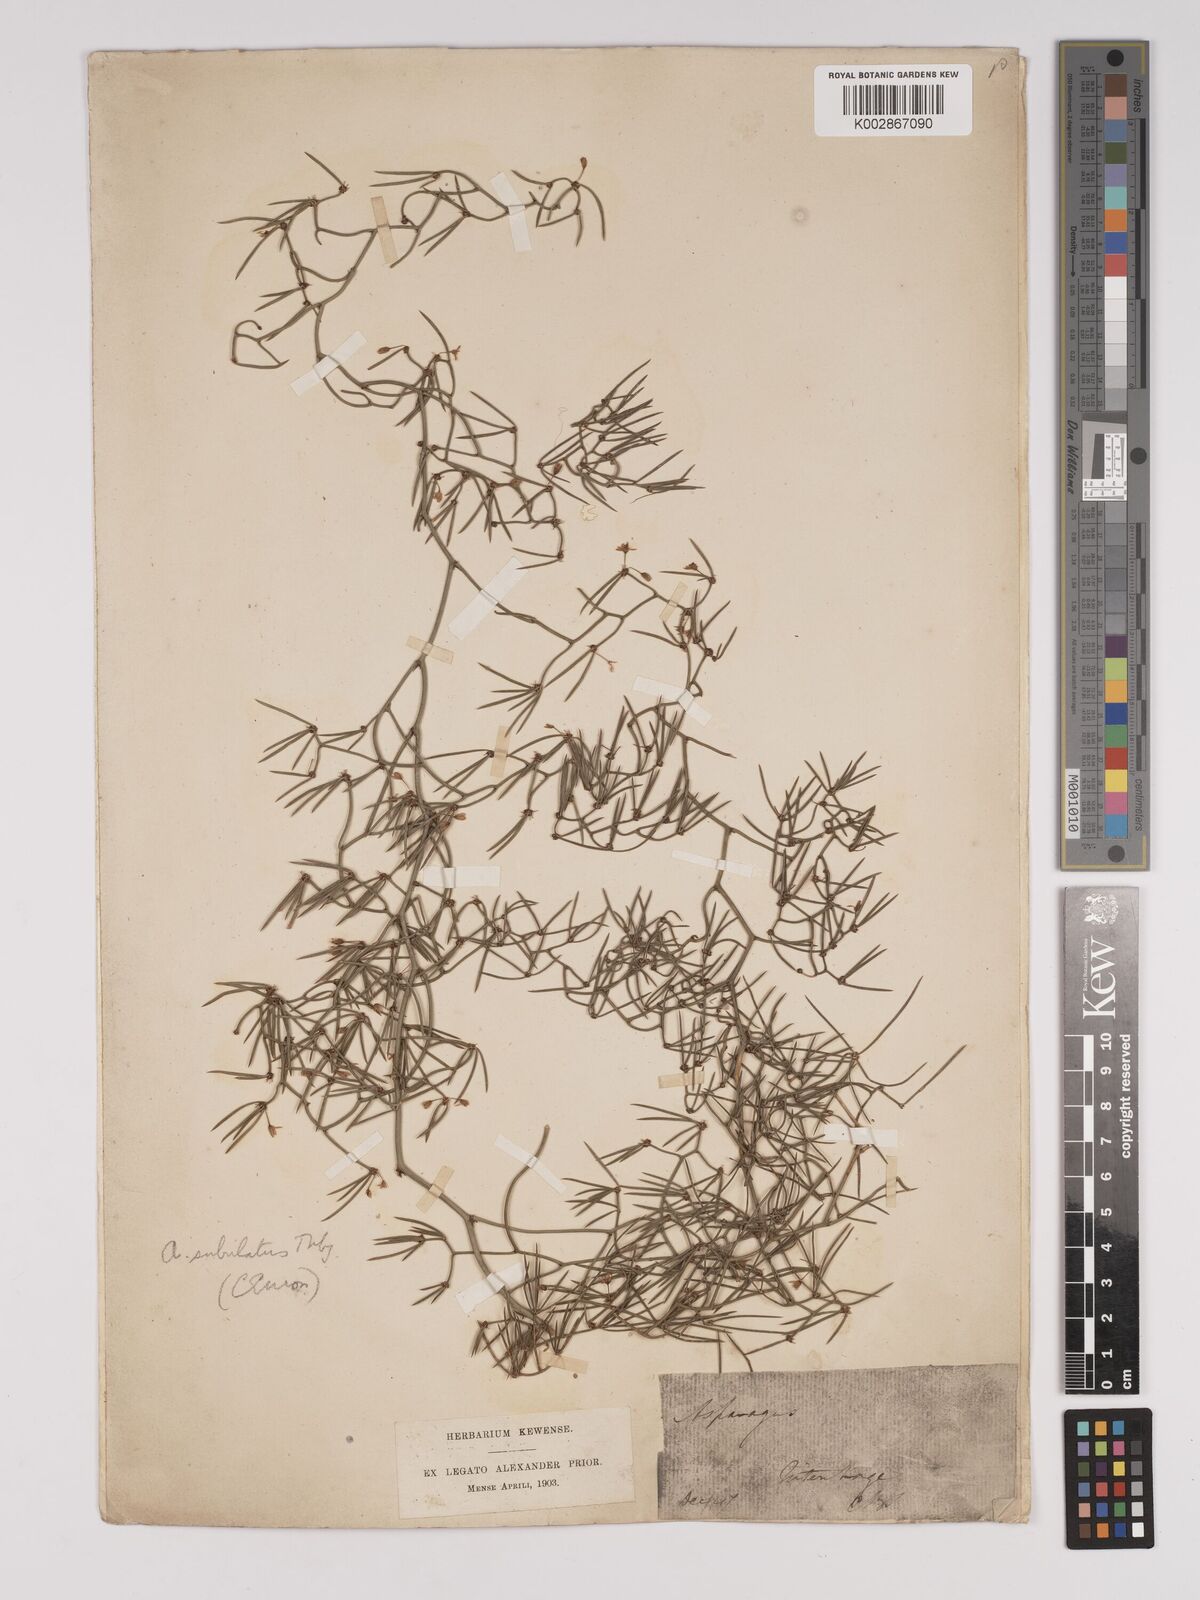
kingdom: Plantae
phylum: Tracheophyta
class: Liliopsida
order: Asparagales
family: Asparagaceae
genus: Asparagus
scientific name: Asparagus subulatus
